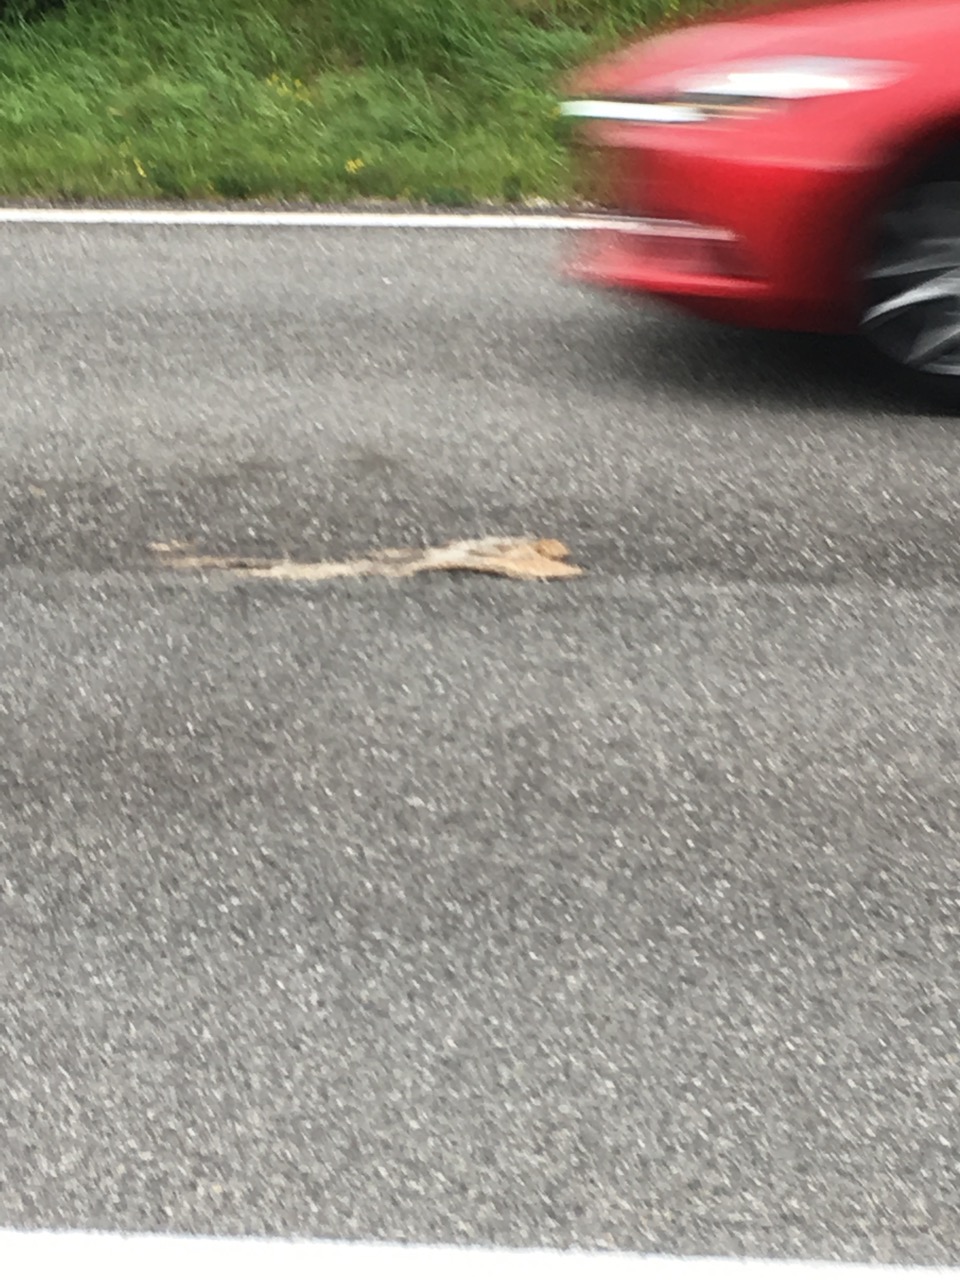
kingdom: Animalia
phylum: Chordata
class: Mammalia
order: Erinaceomorpha
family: Erinaceidae
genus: Erinaceus
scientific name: Erinaceus
